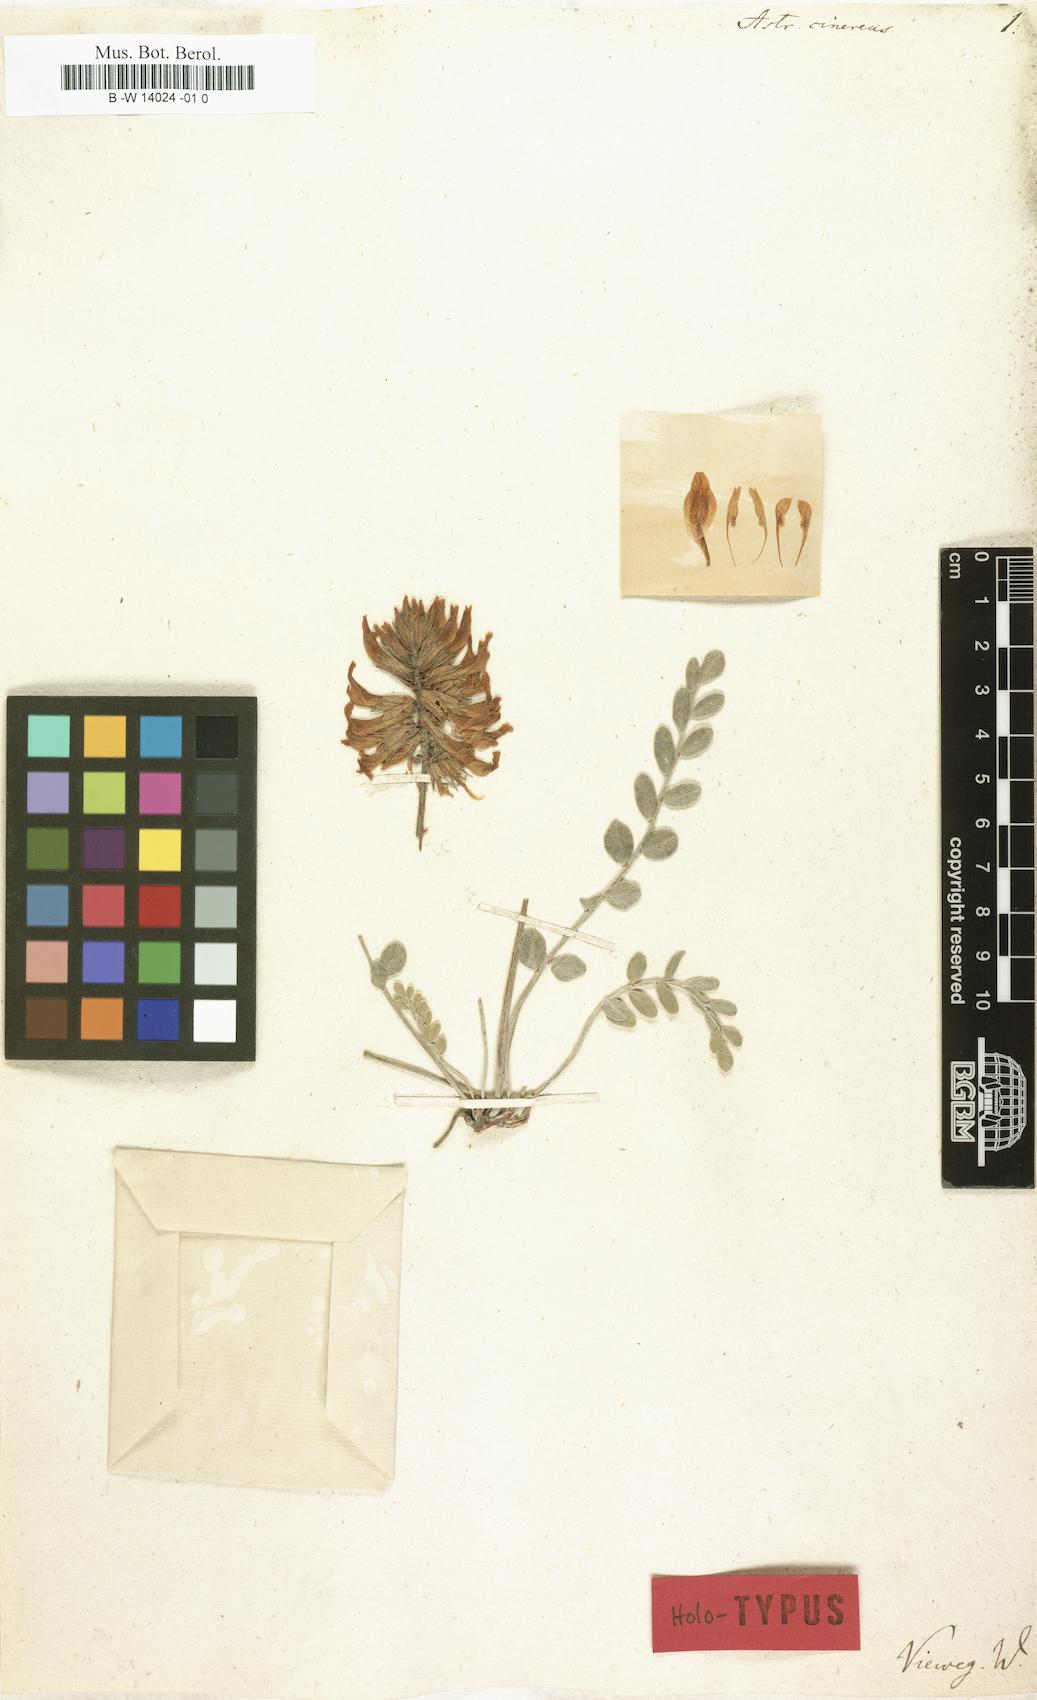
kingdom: Plantae
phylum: Tracheophyta
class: Magnoliopsida
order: Fabales
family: Fabaceae
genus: Astragalus
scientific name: Astragalus olchonensis
